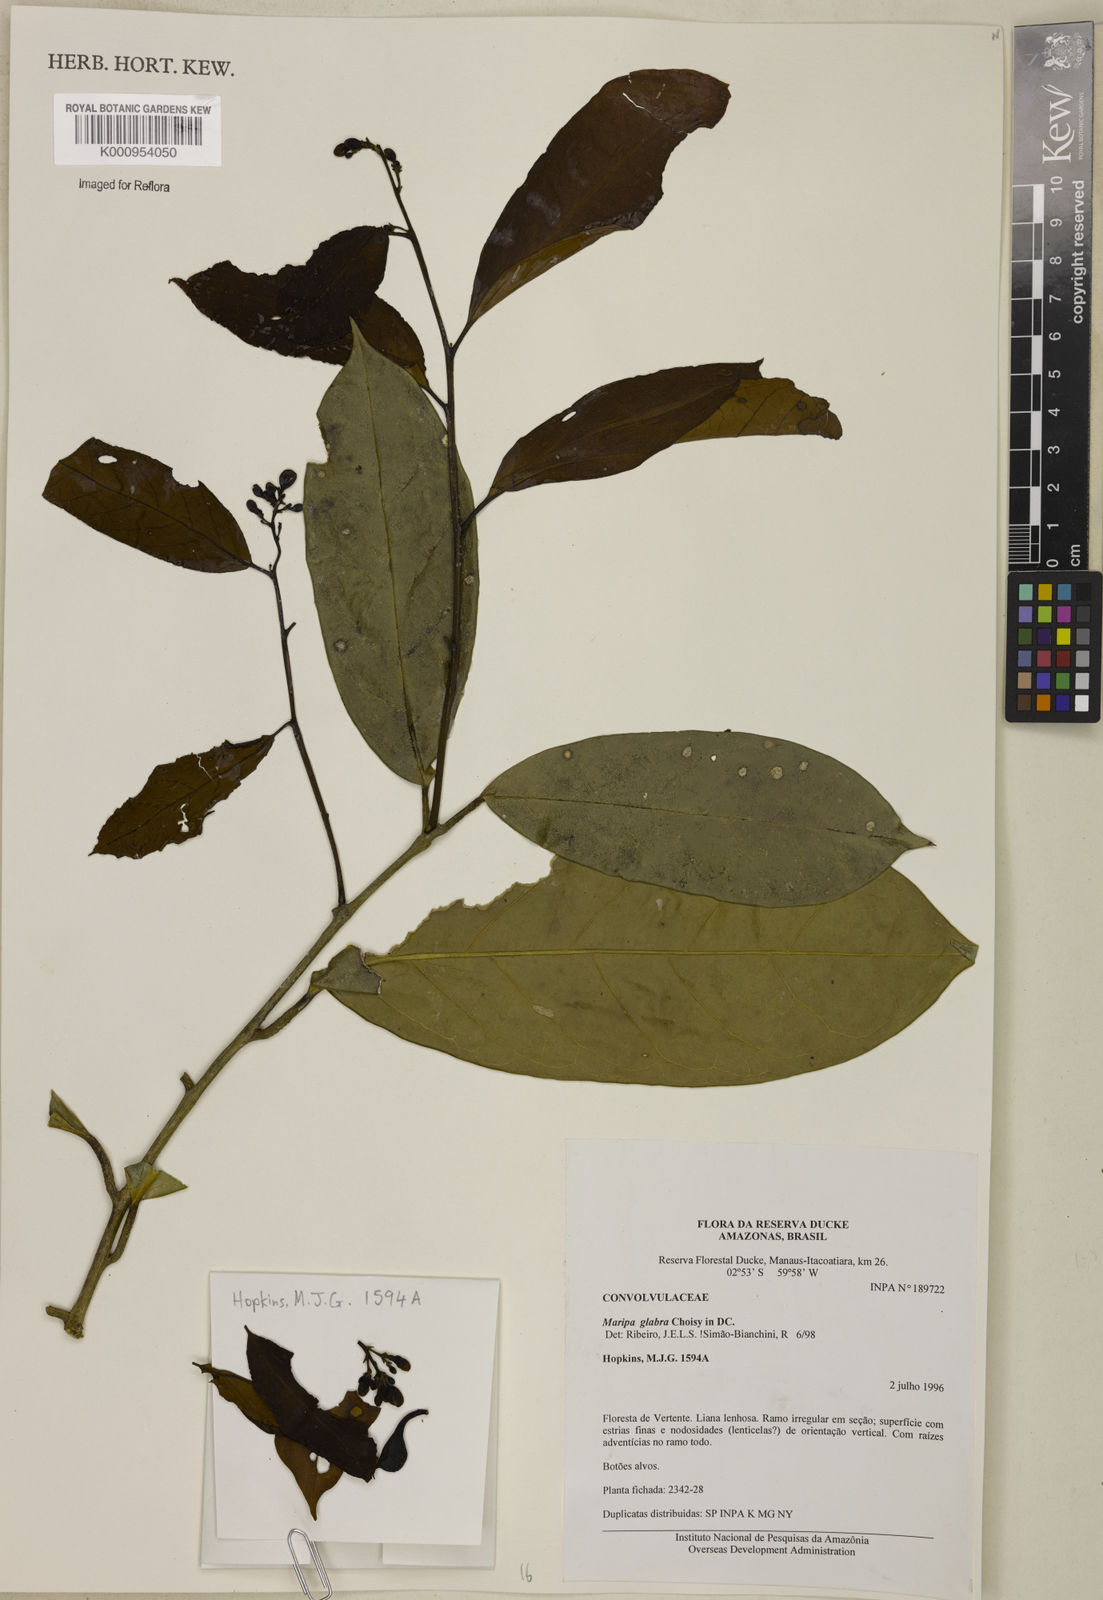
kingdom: Plantae
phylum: Tracheophyta
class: Magnoliopsida
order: Solanales
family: Convolvulaceae
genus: Maripa
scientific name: Maripa glabra
